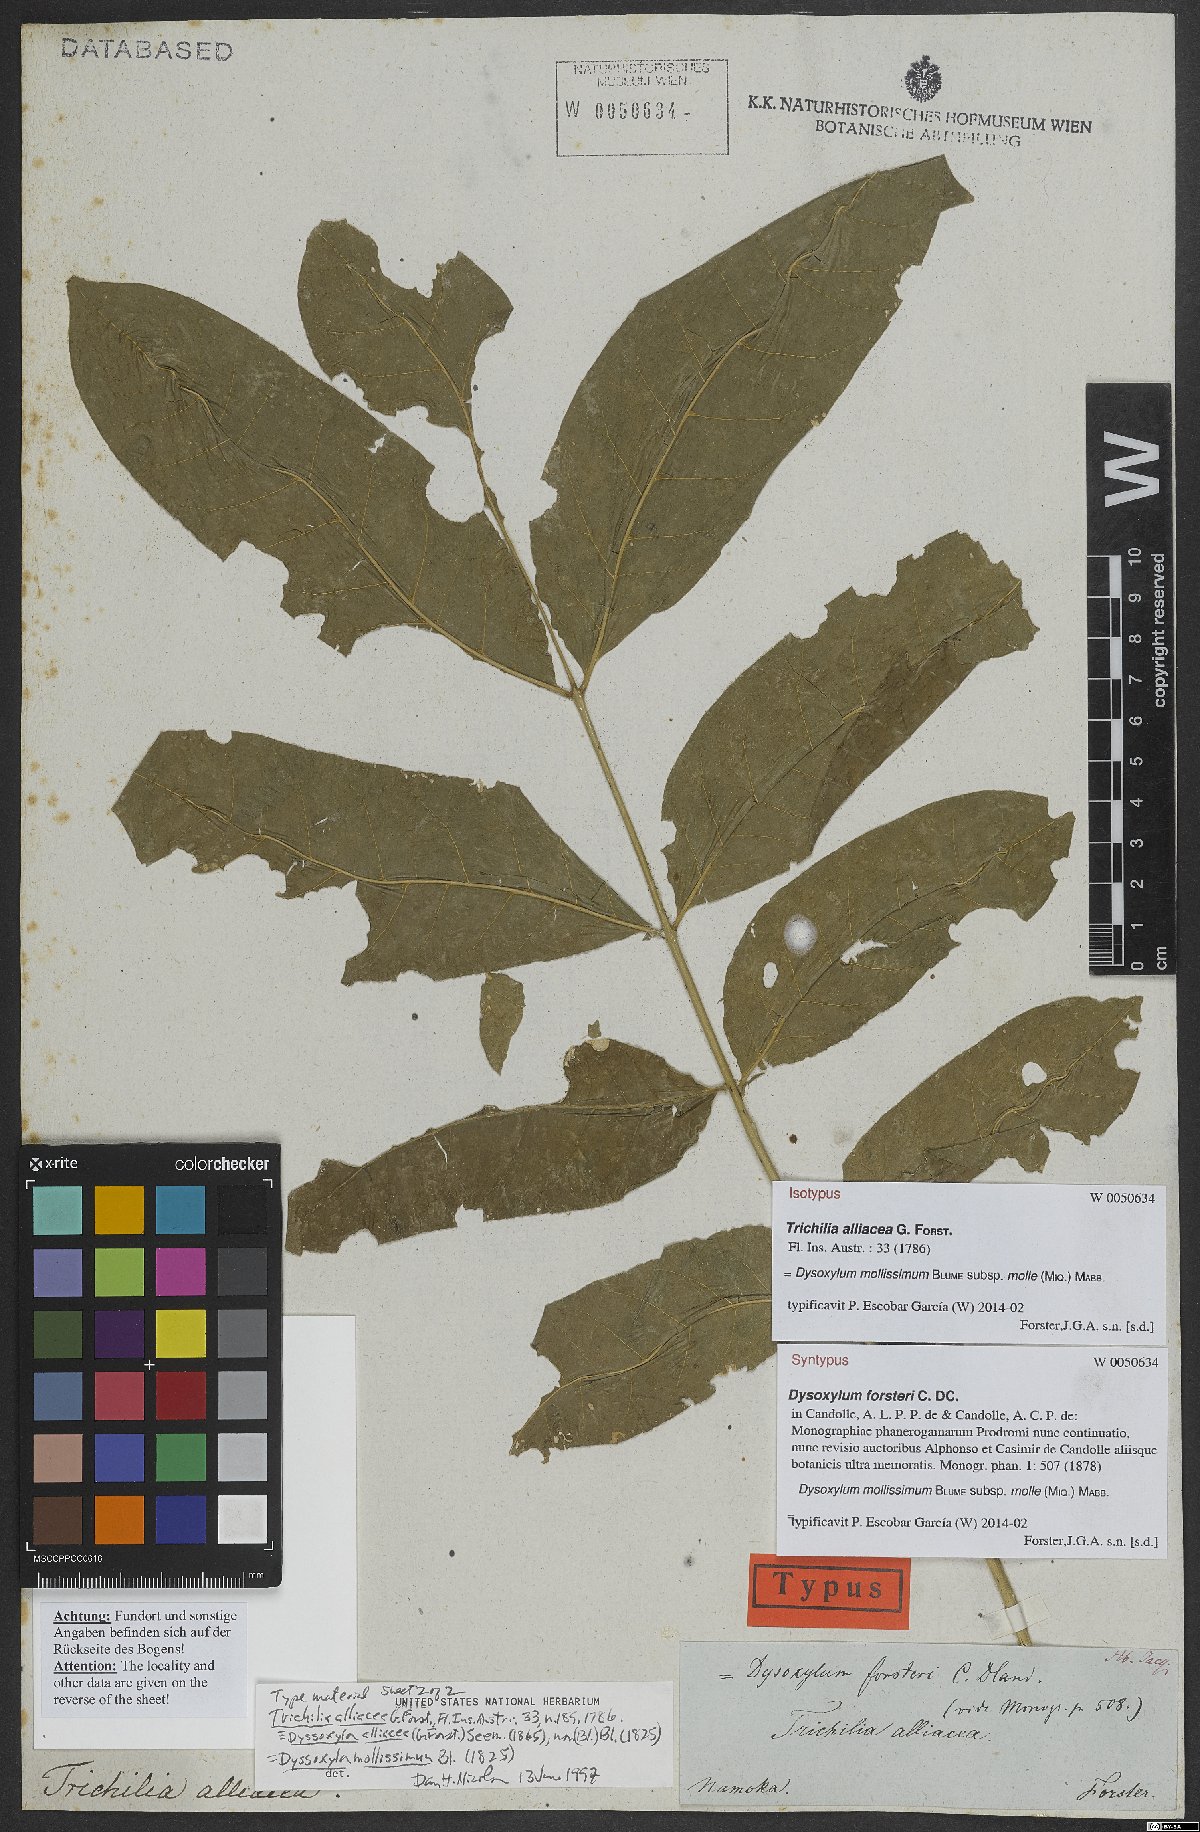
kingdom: Plantae
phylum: Tracheophyta
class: Magnoliopsida
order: Sapindales
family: Meliaceae
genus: Didymocheton
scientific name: Didymocheton mollis
